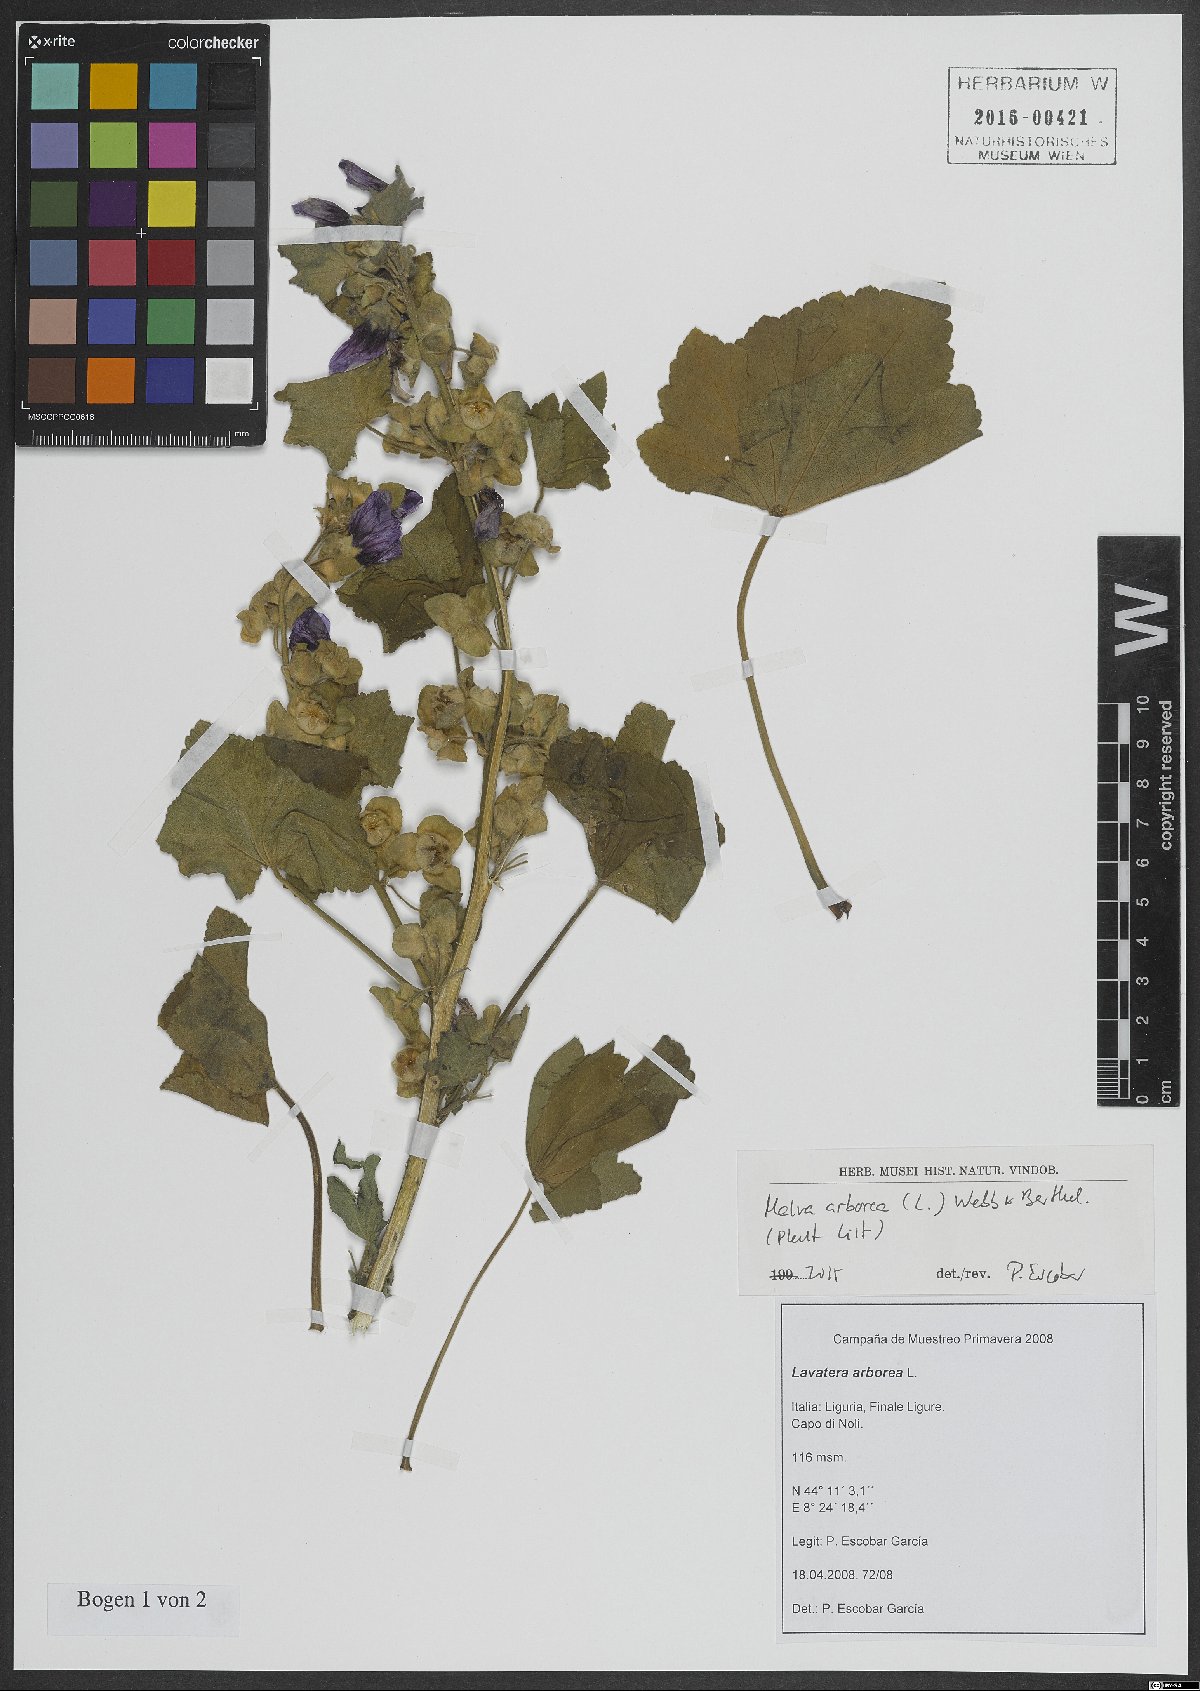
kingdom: Plantae
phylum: Tracheophyta
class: Magnoliopsida
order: Malvales
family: Malvaceae
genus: Malva
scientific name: Malva arborea
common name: Tree mallow
